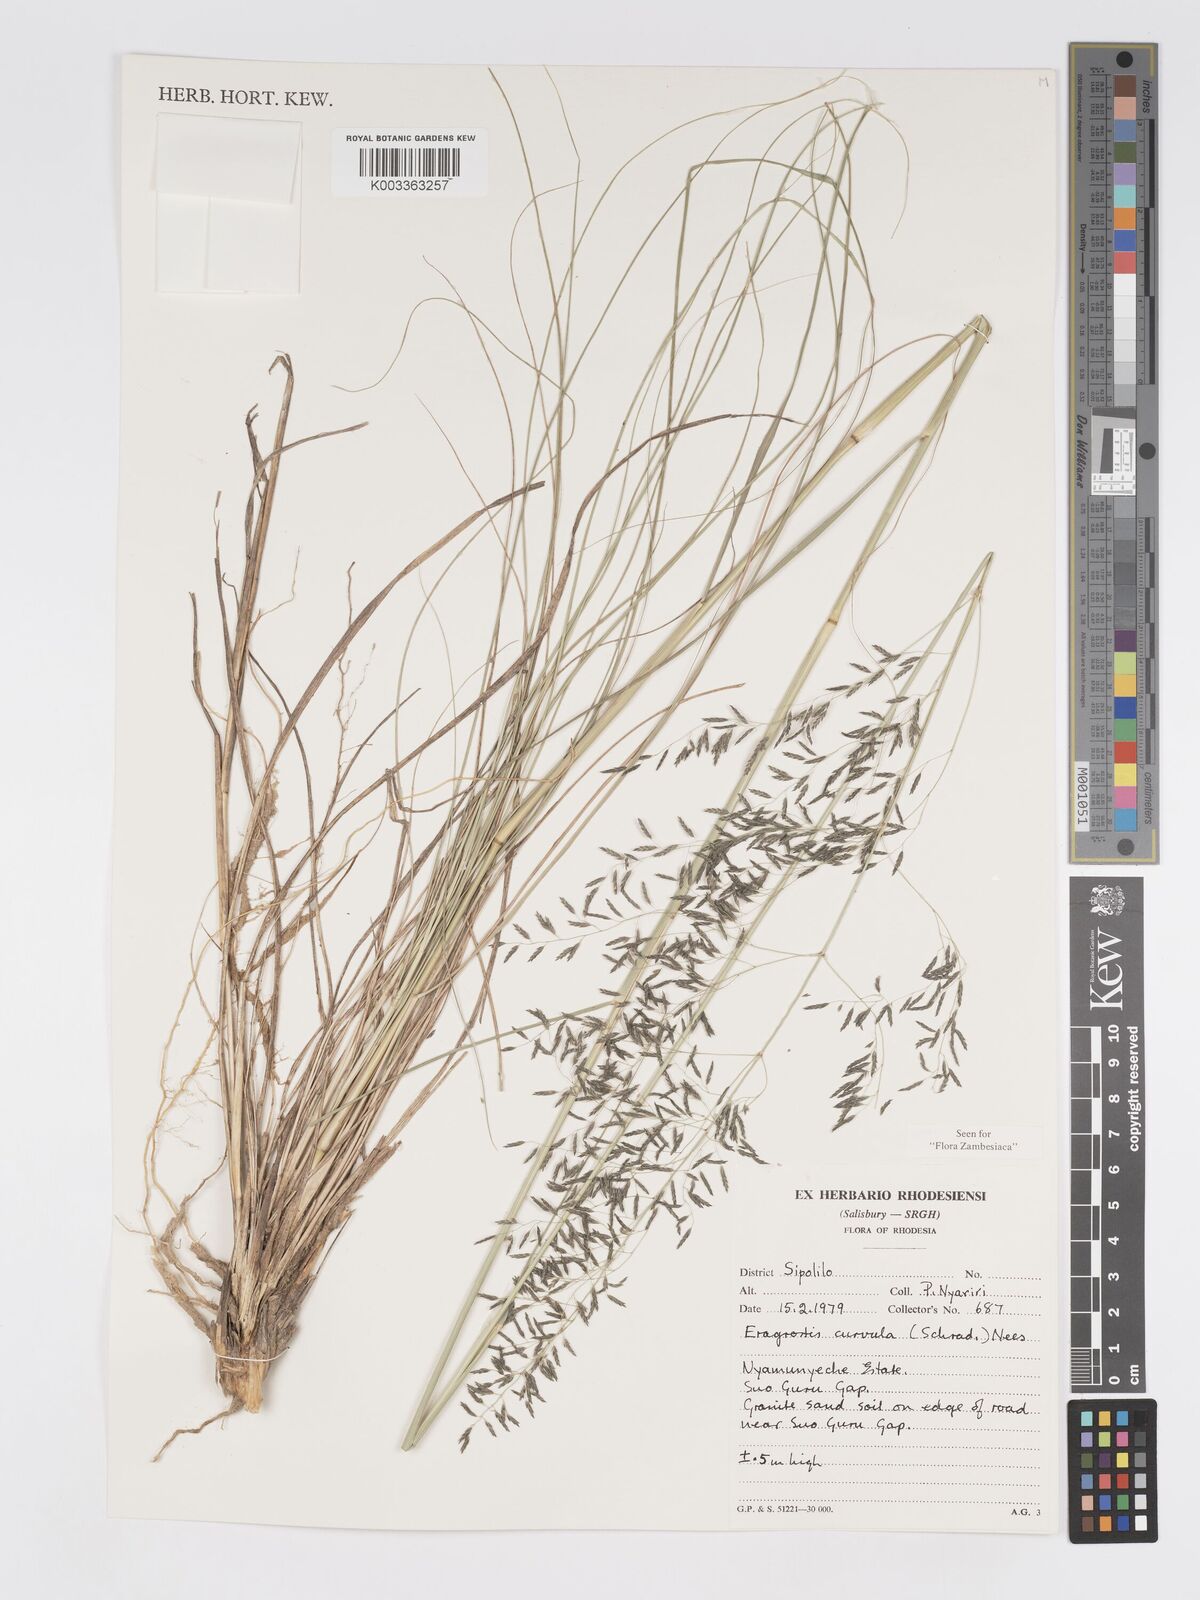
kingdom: Plantae
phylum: Tracheophyta
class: Liliopsida
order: Poales
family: Poaceae
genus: Eragrostis
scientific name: Eragrostis curvula
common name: African love-grass
